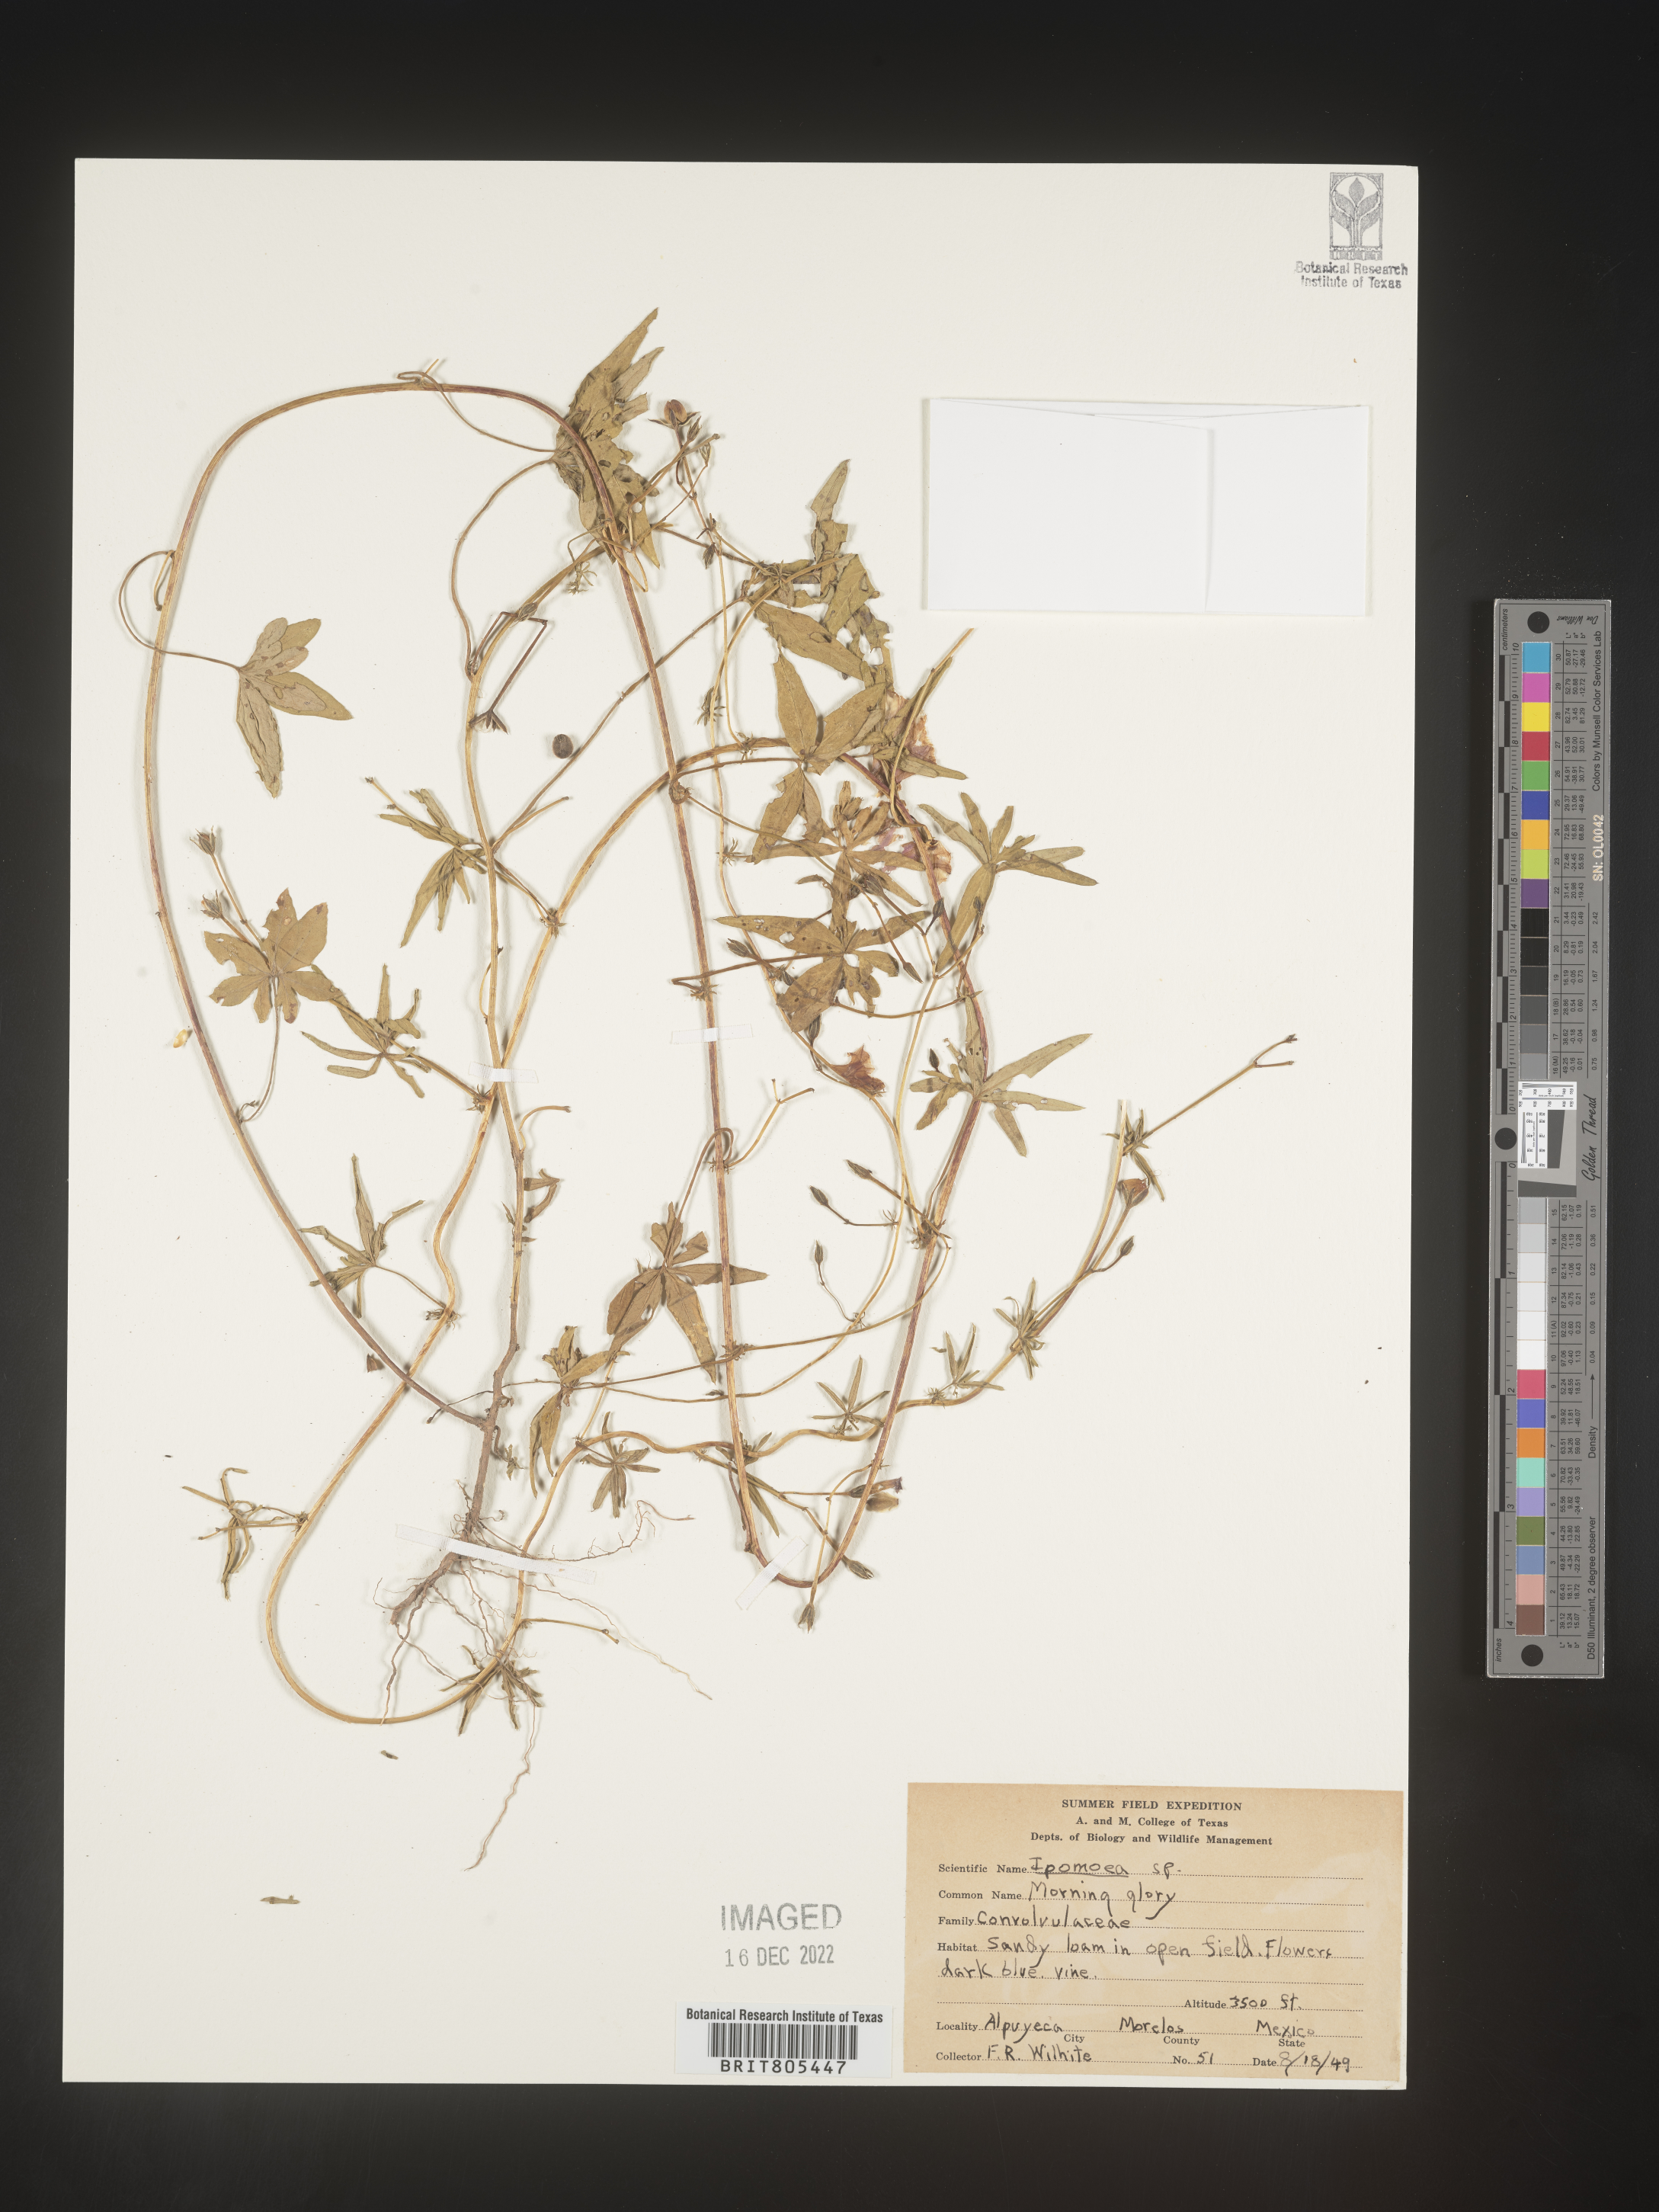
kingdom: Plantae
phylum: Tracheophyta
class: Magnoliopsida
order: Solanales
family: Convolvulaceae
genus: Ipomoea
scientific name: Ipomoea
